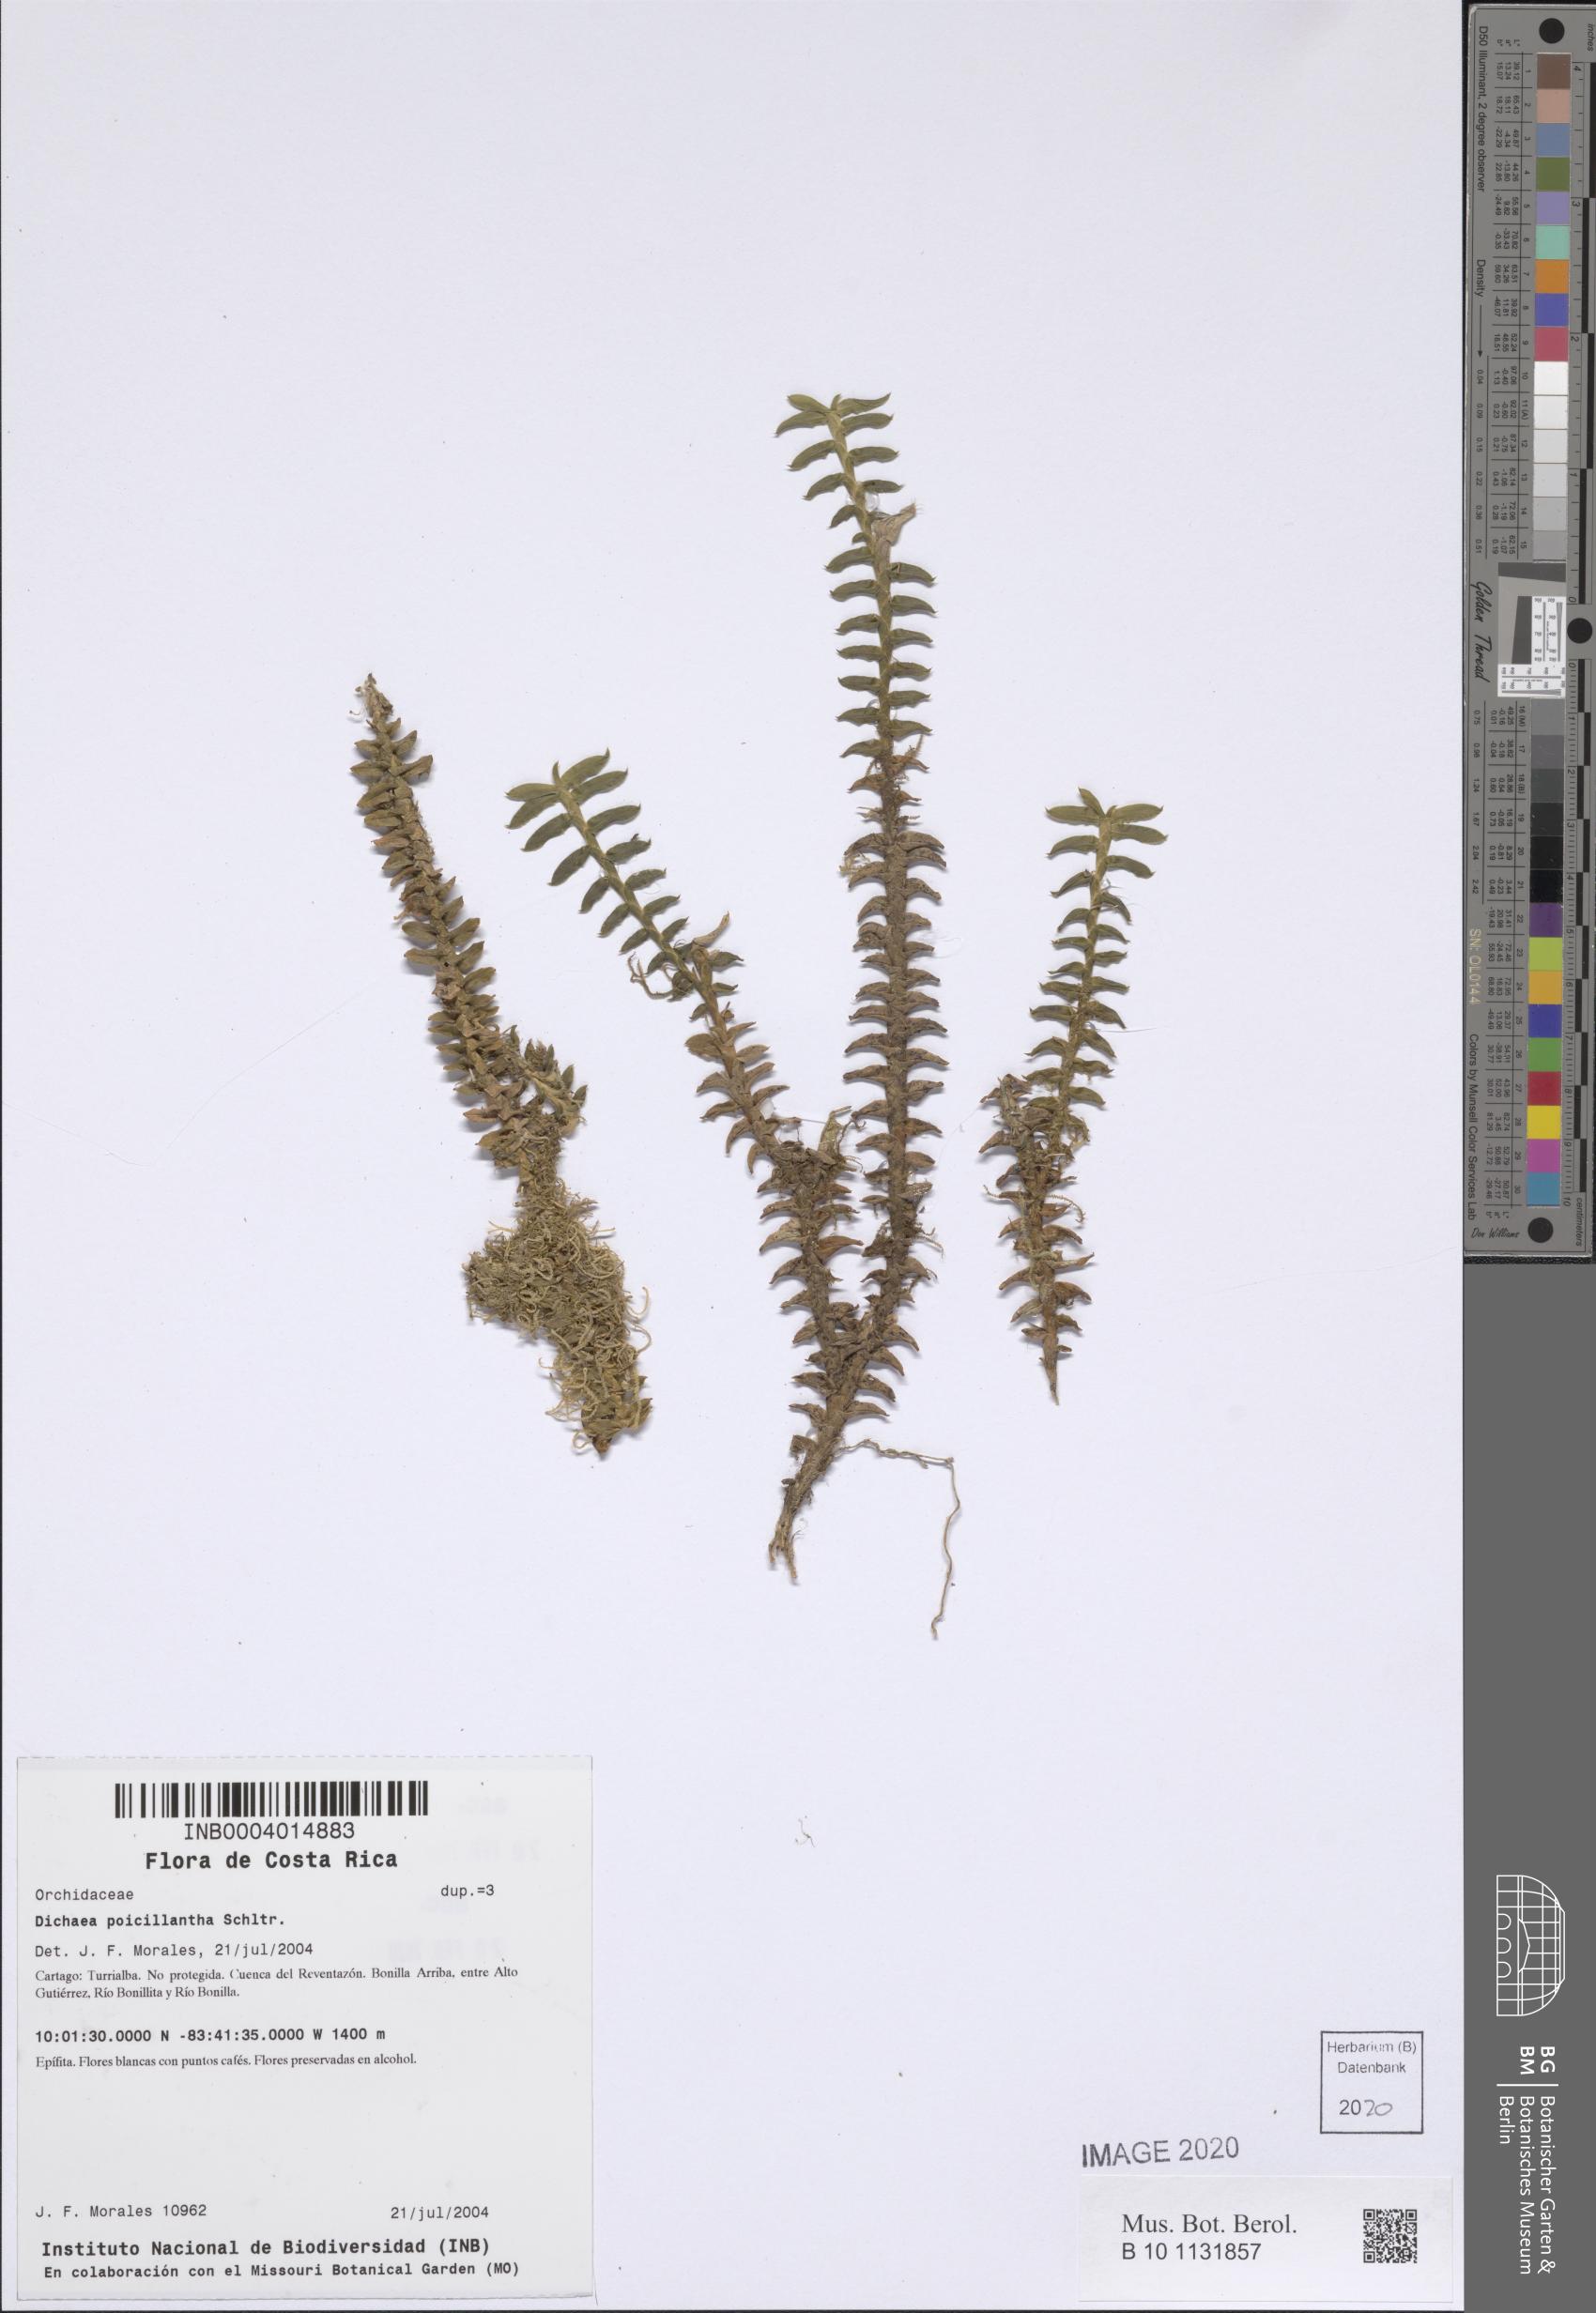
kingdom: Plantae
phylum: Tracheophyta
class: Liliopsida
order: Asparagales
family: Orchidaceae
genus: Dichaea
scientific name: Dichaea poicillantha
